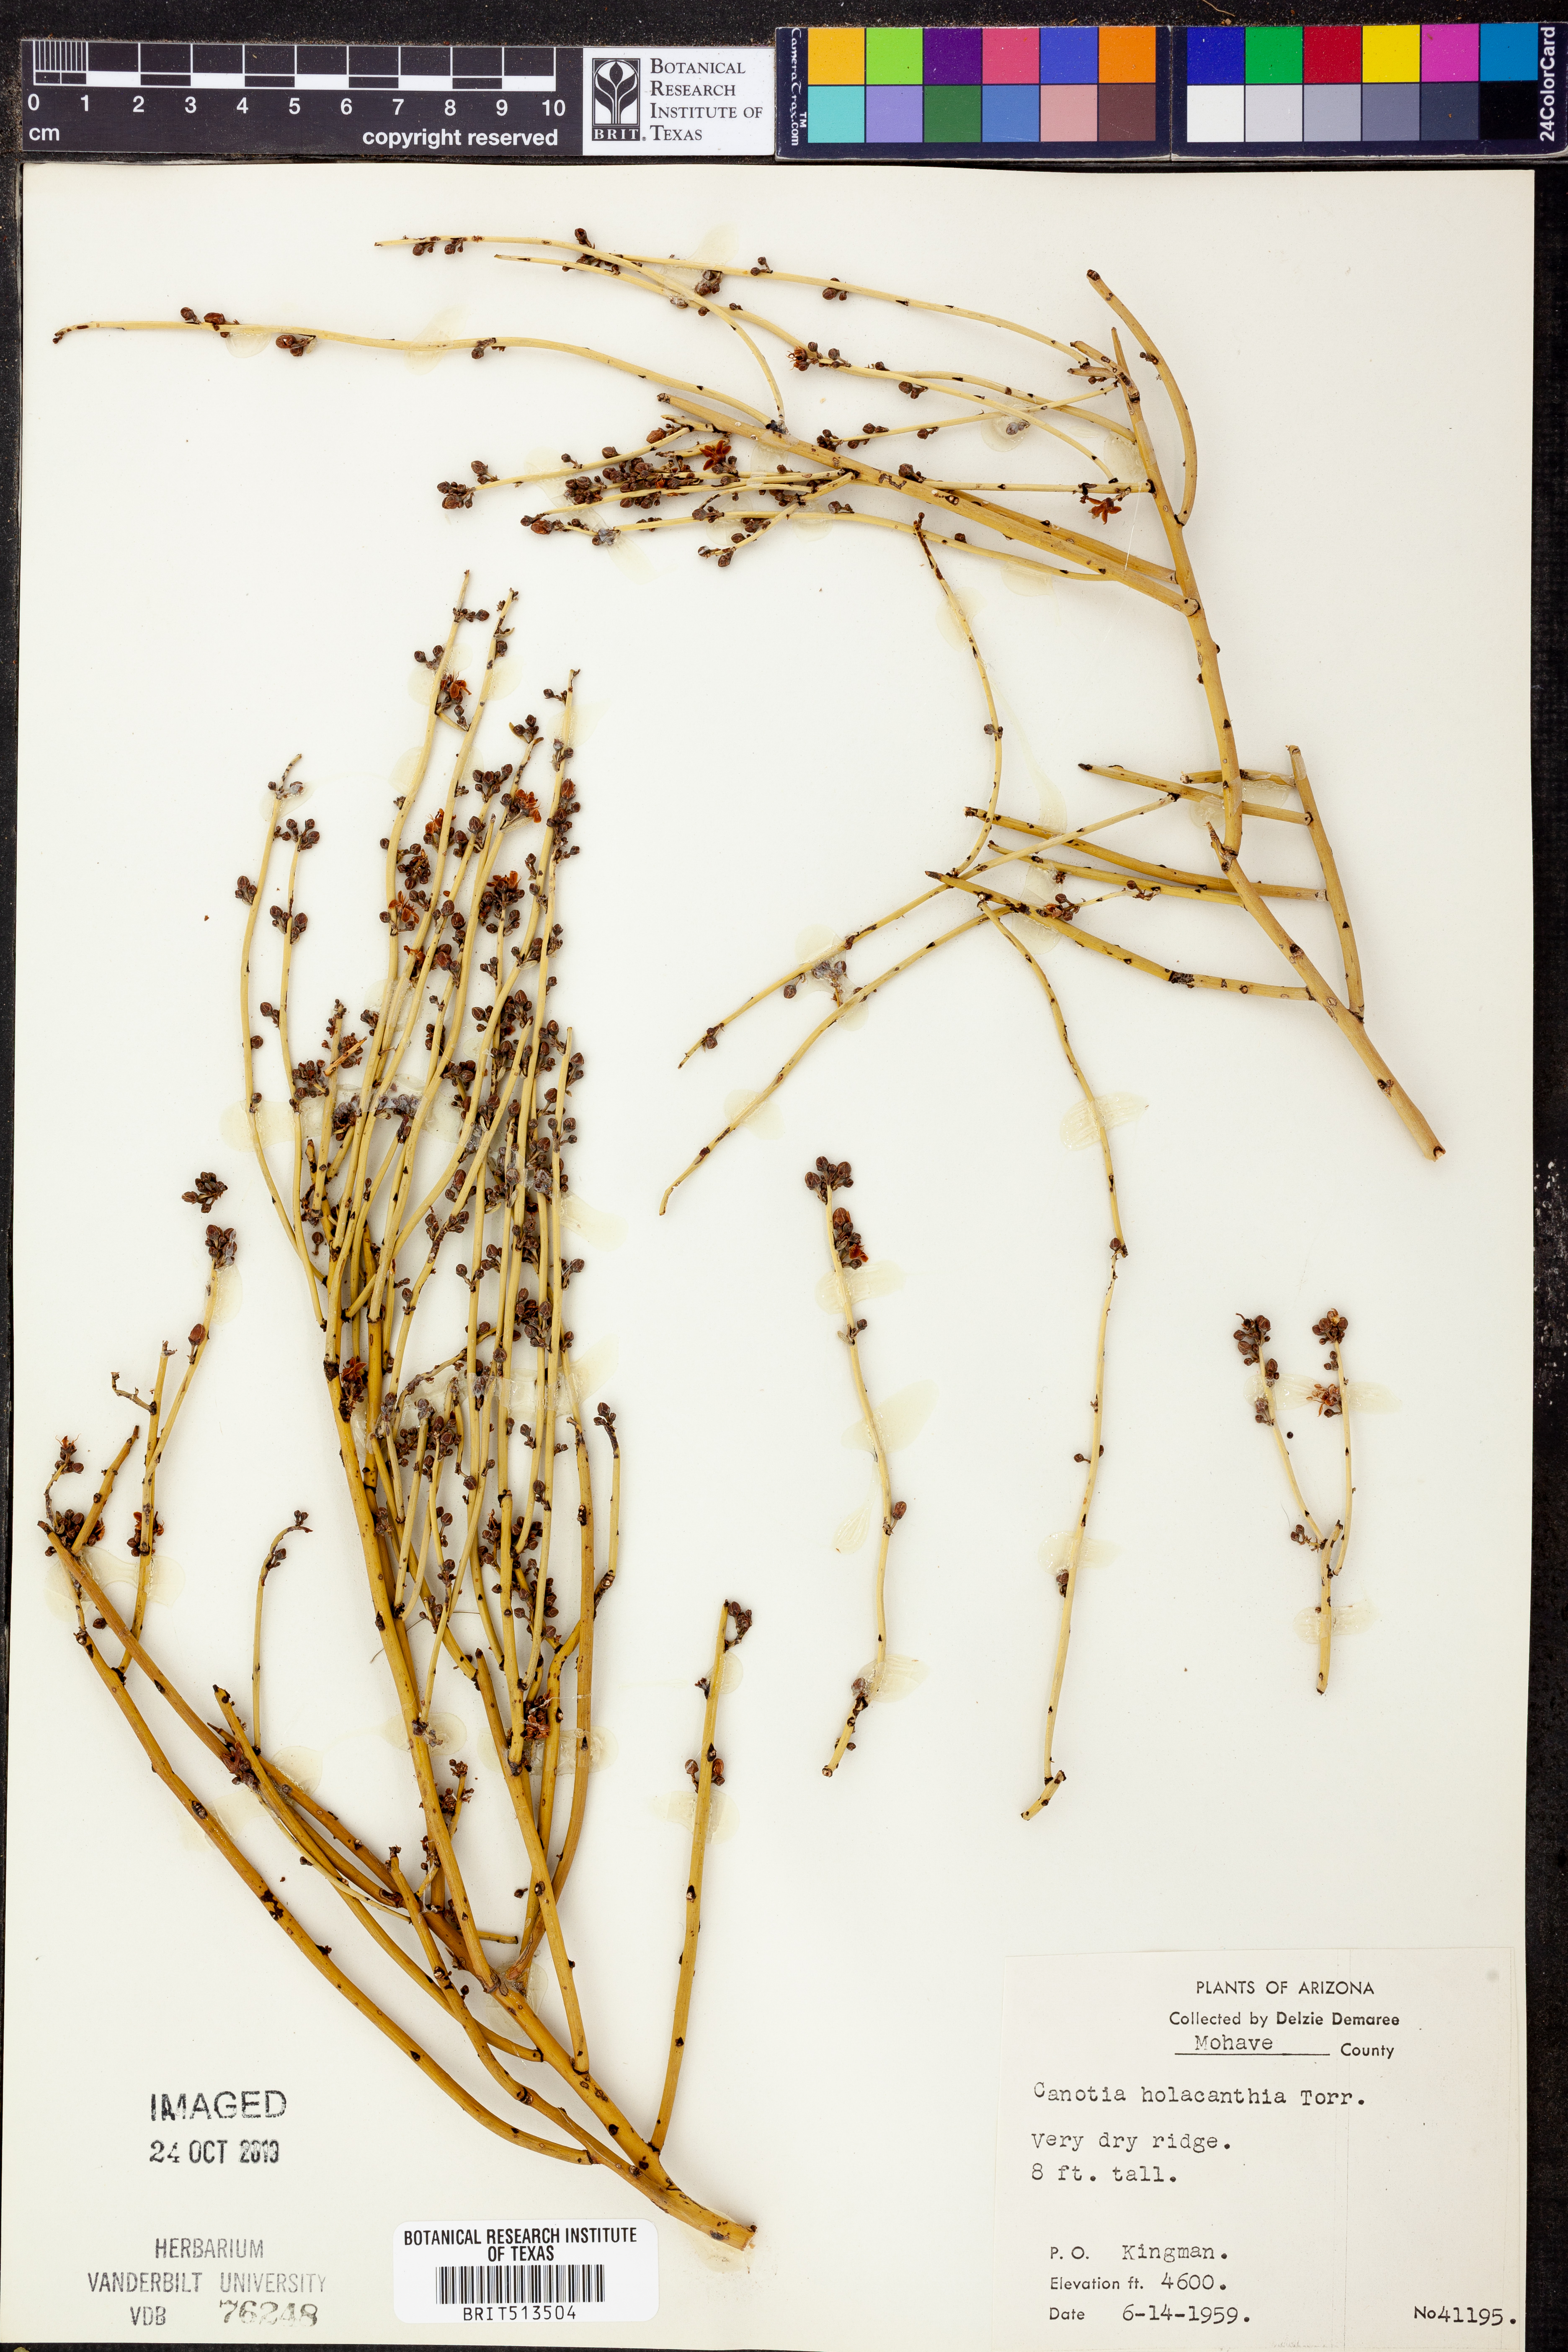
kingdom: Plantae
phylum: Tracheophyta
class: Magnoliopsida
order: Celastrales
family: Celastraceae
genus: Canotia
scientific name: Canotia holacantha
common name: Crucifixion thorns
